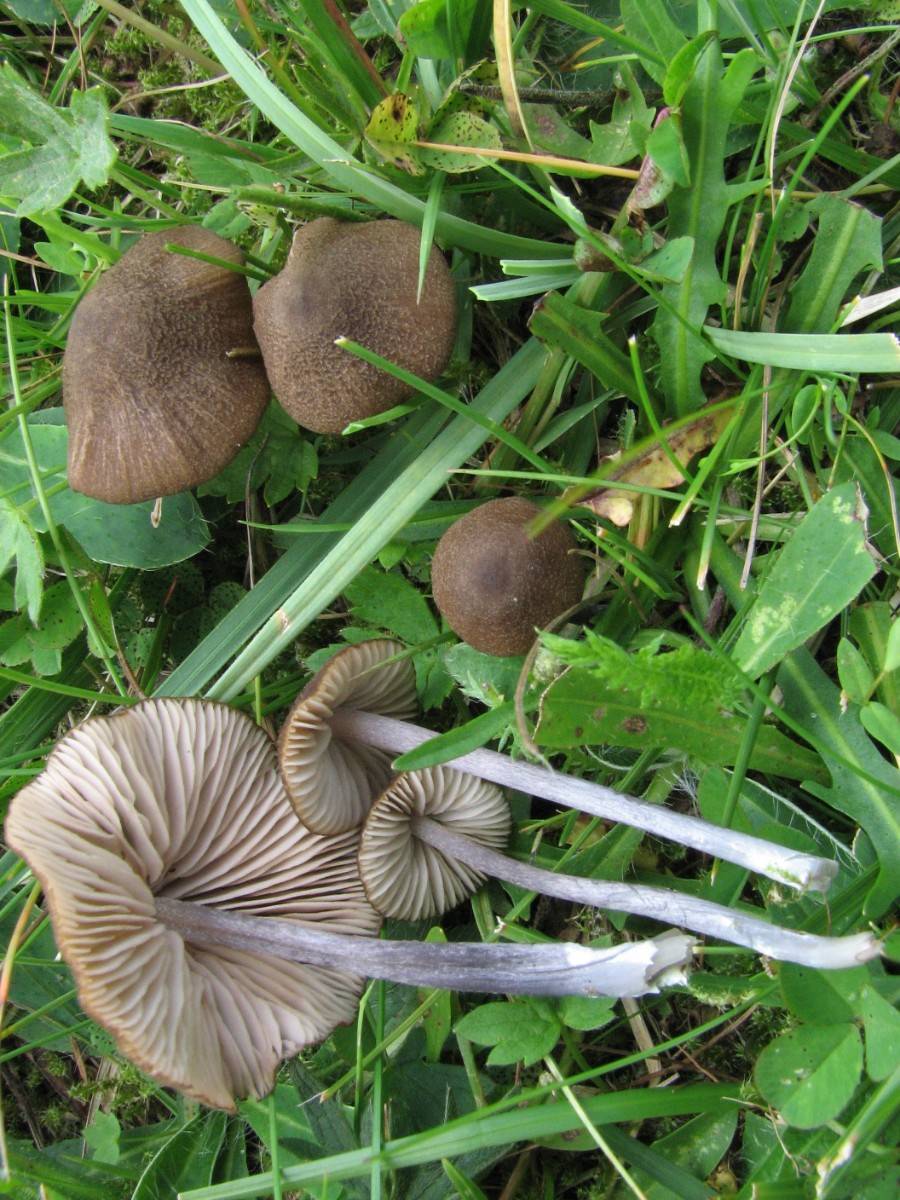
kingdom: Fungi
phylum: Basidiomycota
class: Agaricomycetes
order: Agaricales
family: Entolomataceae
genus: Entoloma
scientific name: Entoloma glaucobasis
